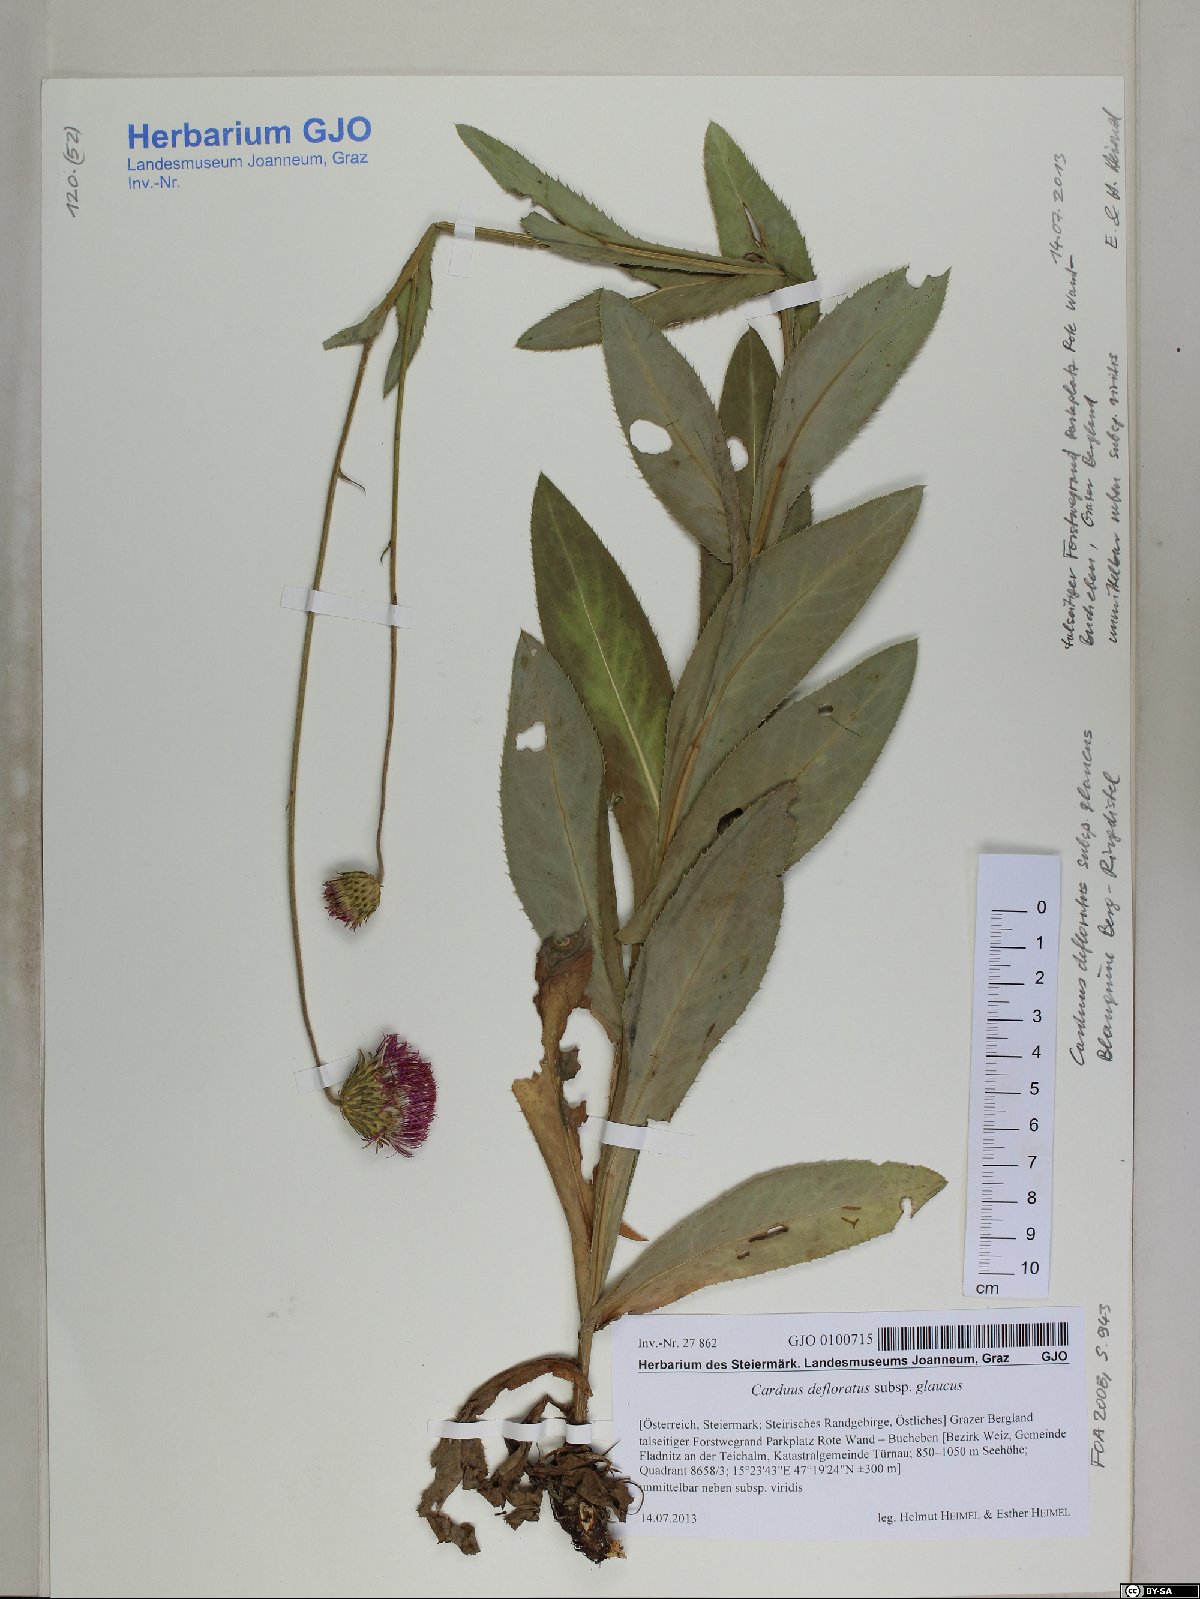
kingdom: Plantae
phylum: Tracheophyta
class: Magnoliopsida
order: Asterales
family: Asteraceae
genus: Carduus
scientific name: Carduus defloratus
